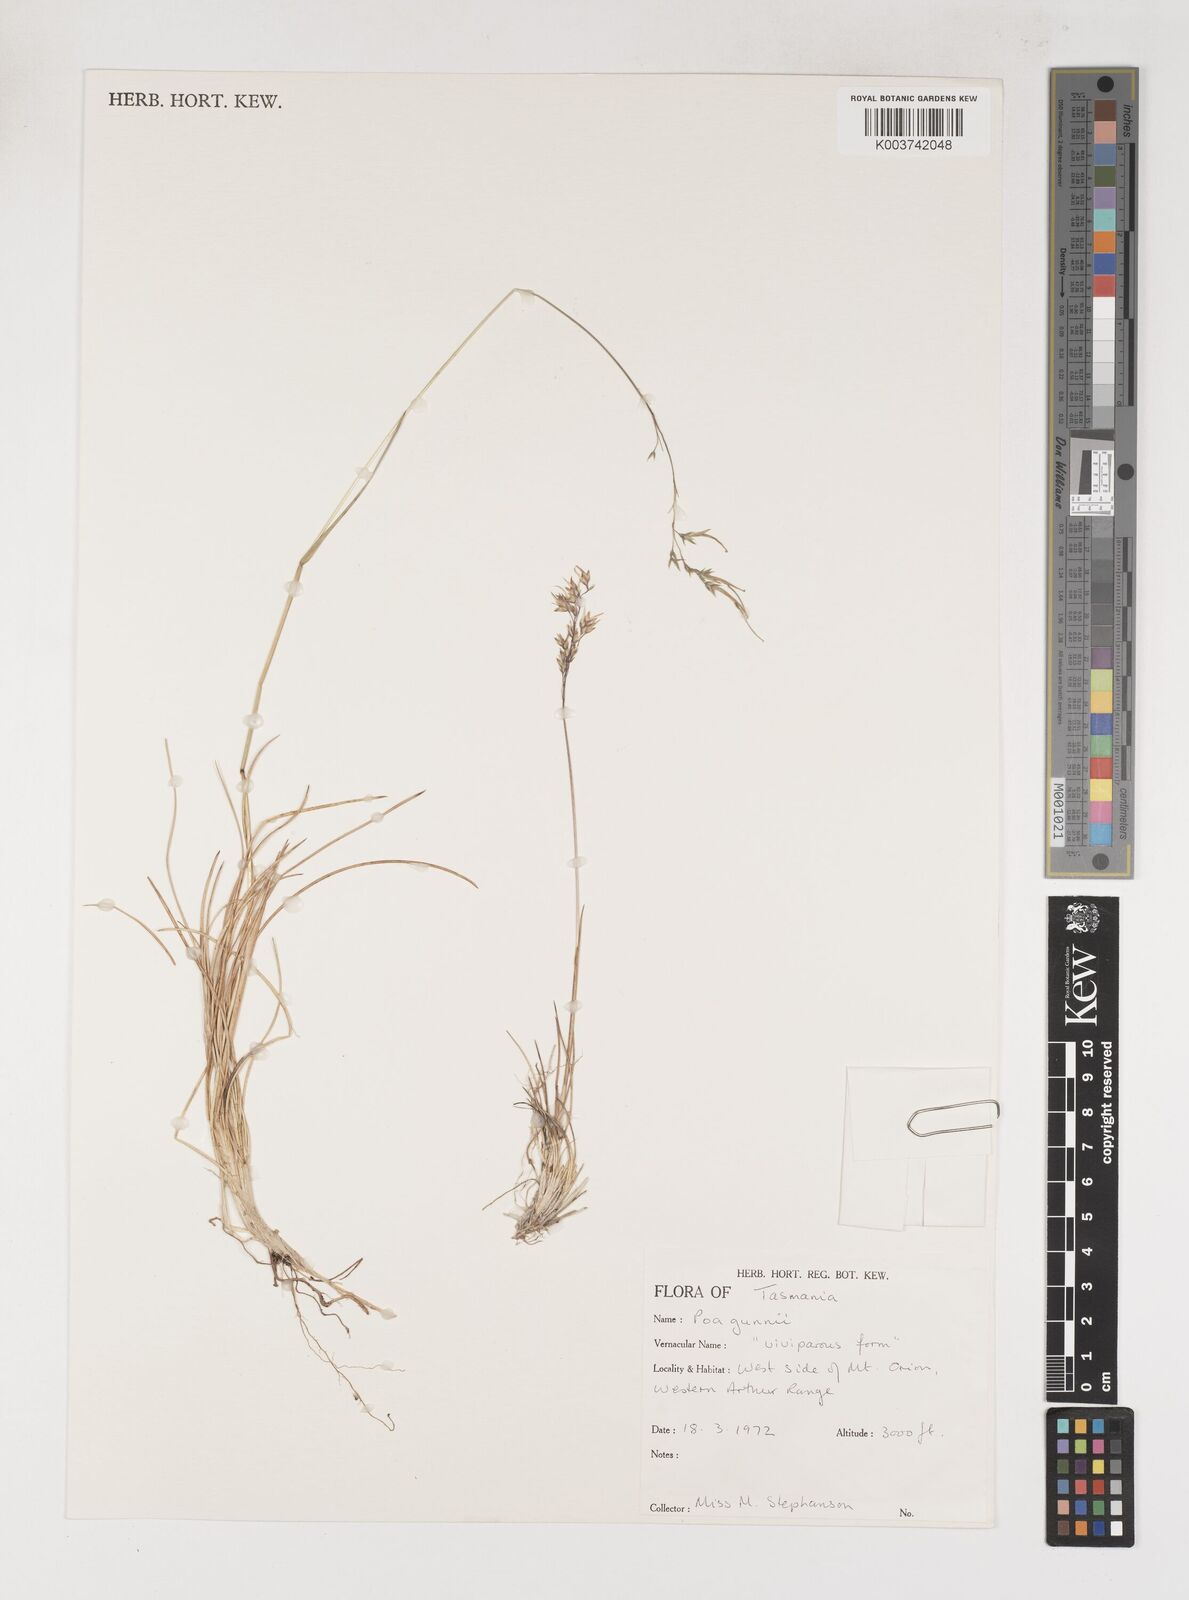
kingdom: Plantae
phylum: Tracheophyta
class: Liliopsida
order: Poales
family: Poaceae
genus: Poa
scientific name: Poa gunnii
